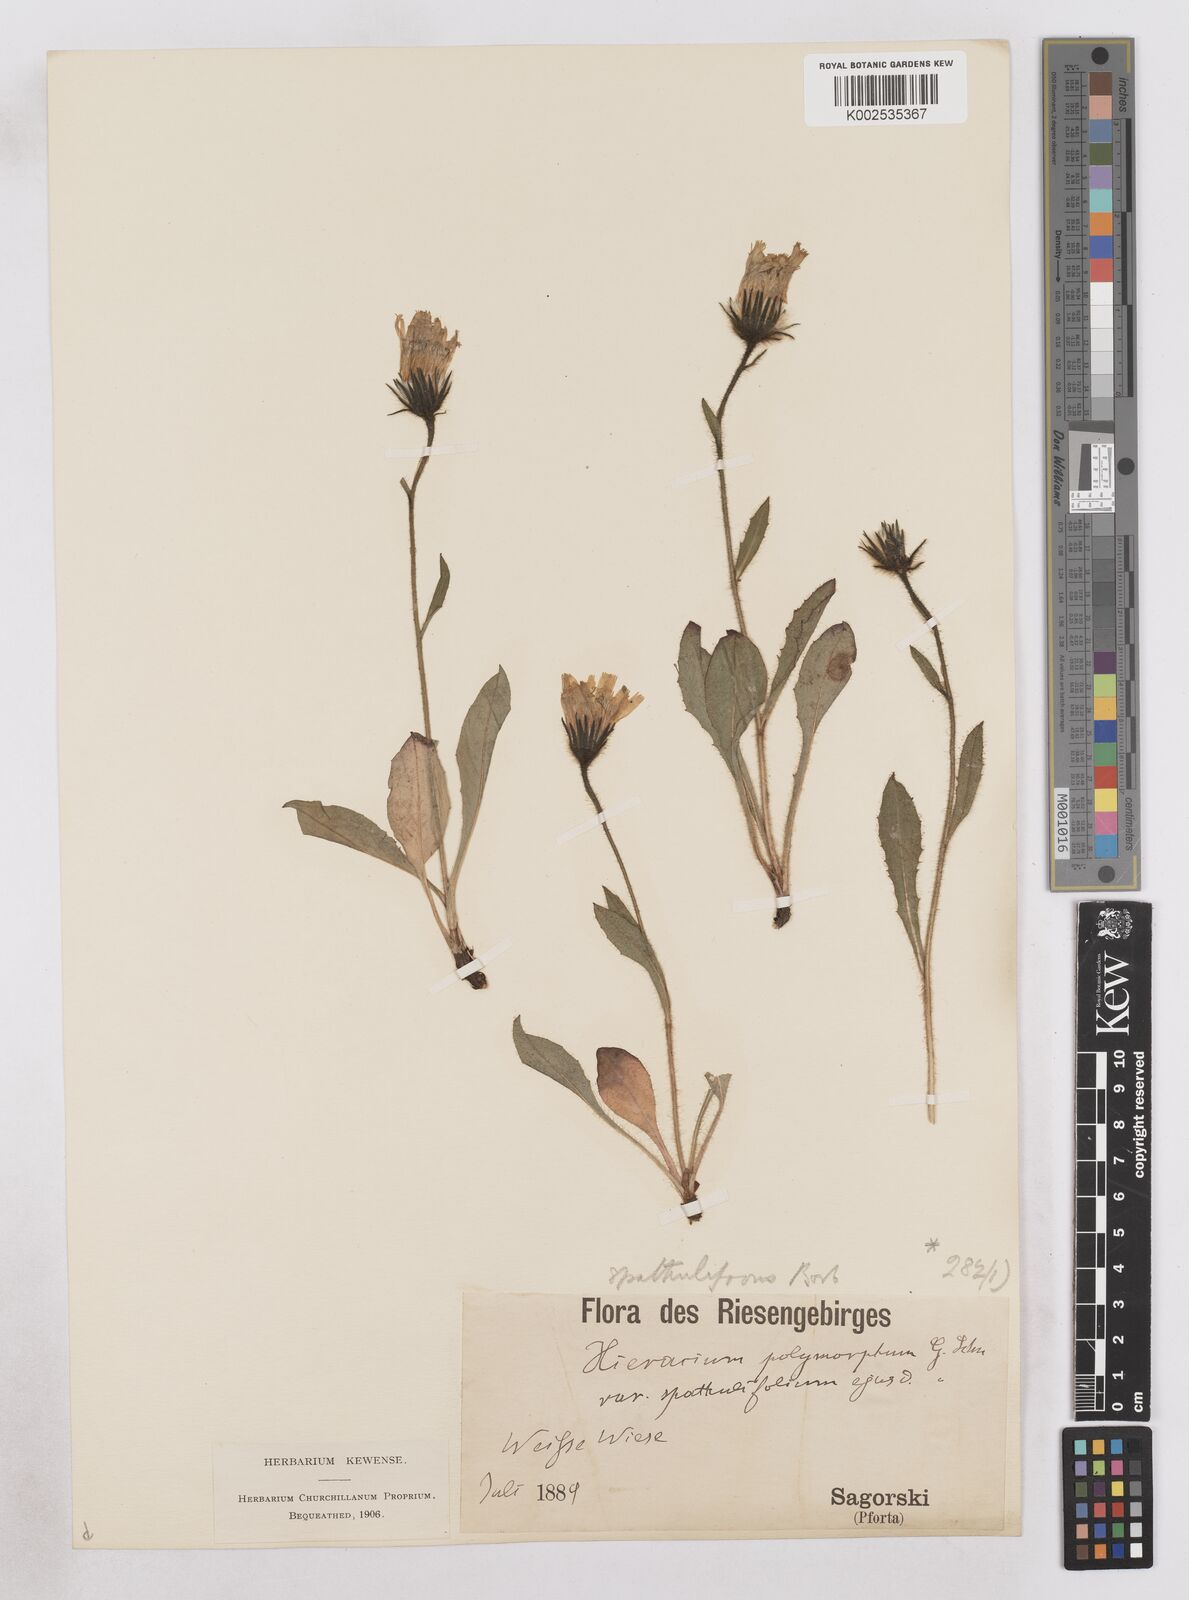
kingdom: Plantae
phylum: Tracheophyta
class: Magnoliopsida
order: Asterales
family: Asteraceae
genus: Hieracium
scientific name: Hieracium fritzei
